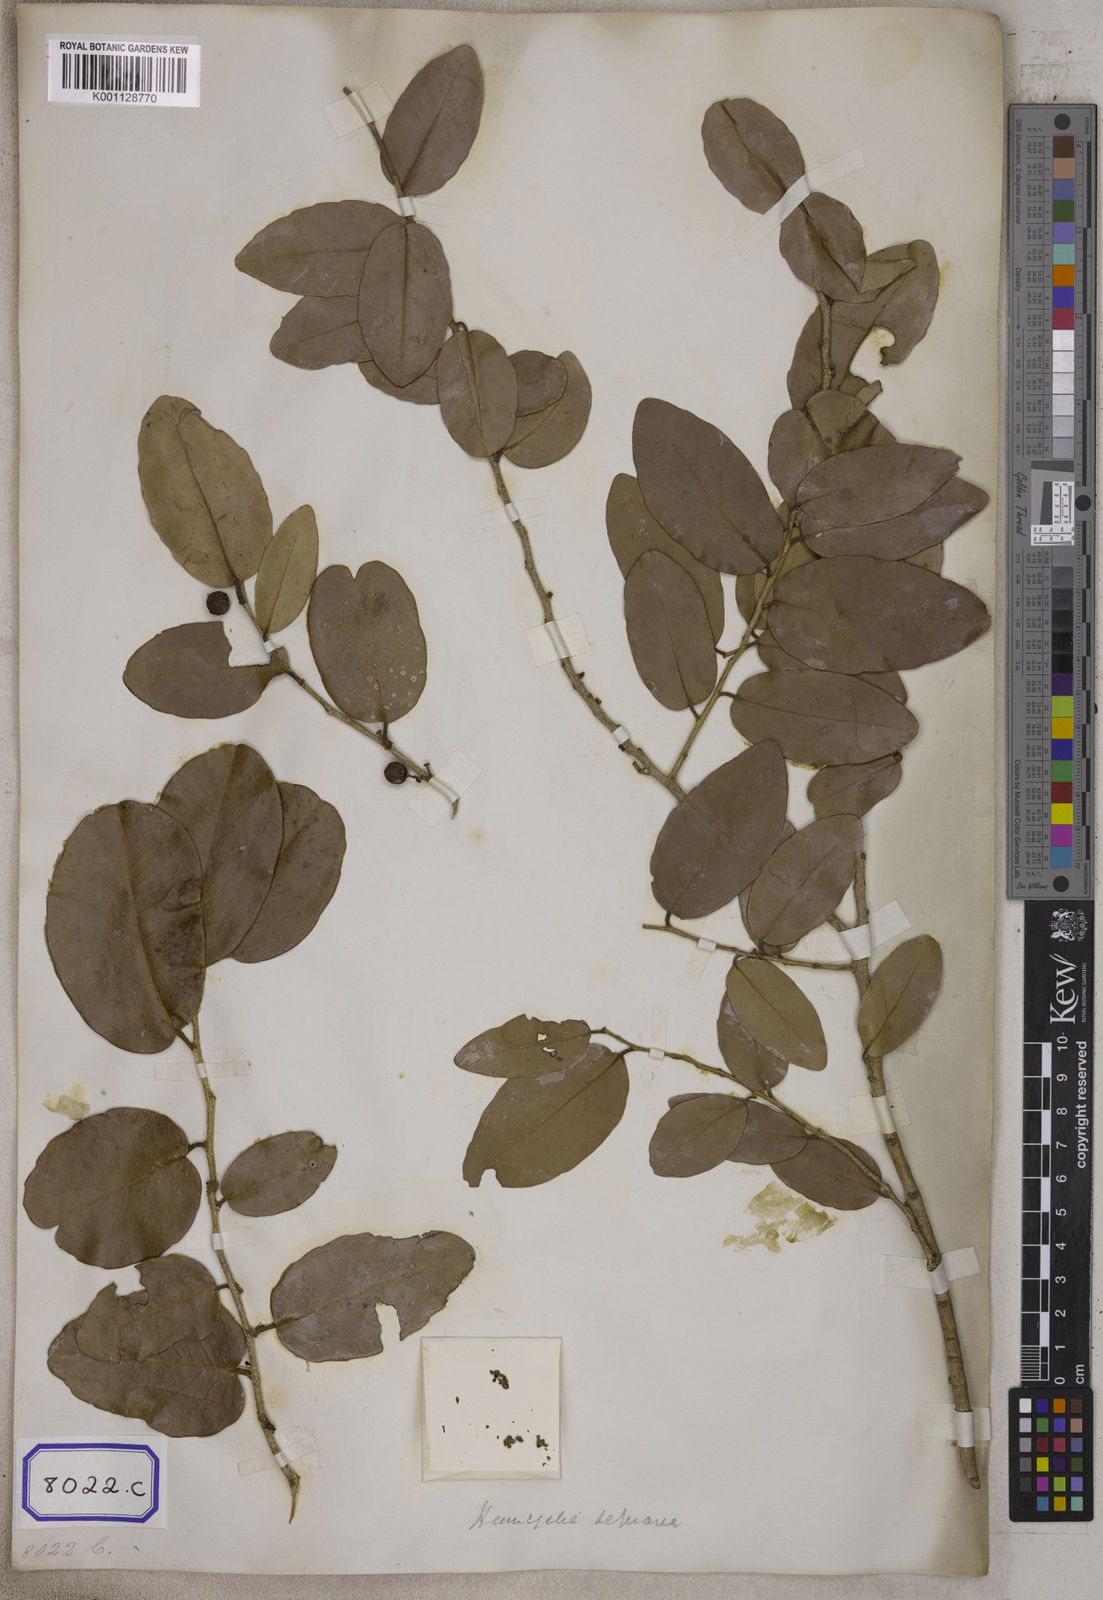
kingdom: Plantae
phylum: Tracheophyta
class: Magnoliopsida
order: Malpighiales
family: Euphorbiaceae
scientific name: Euphorbiaceae
